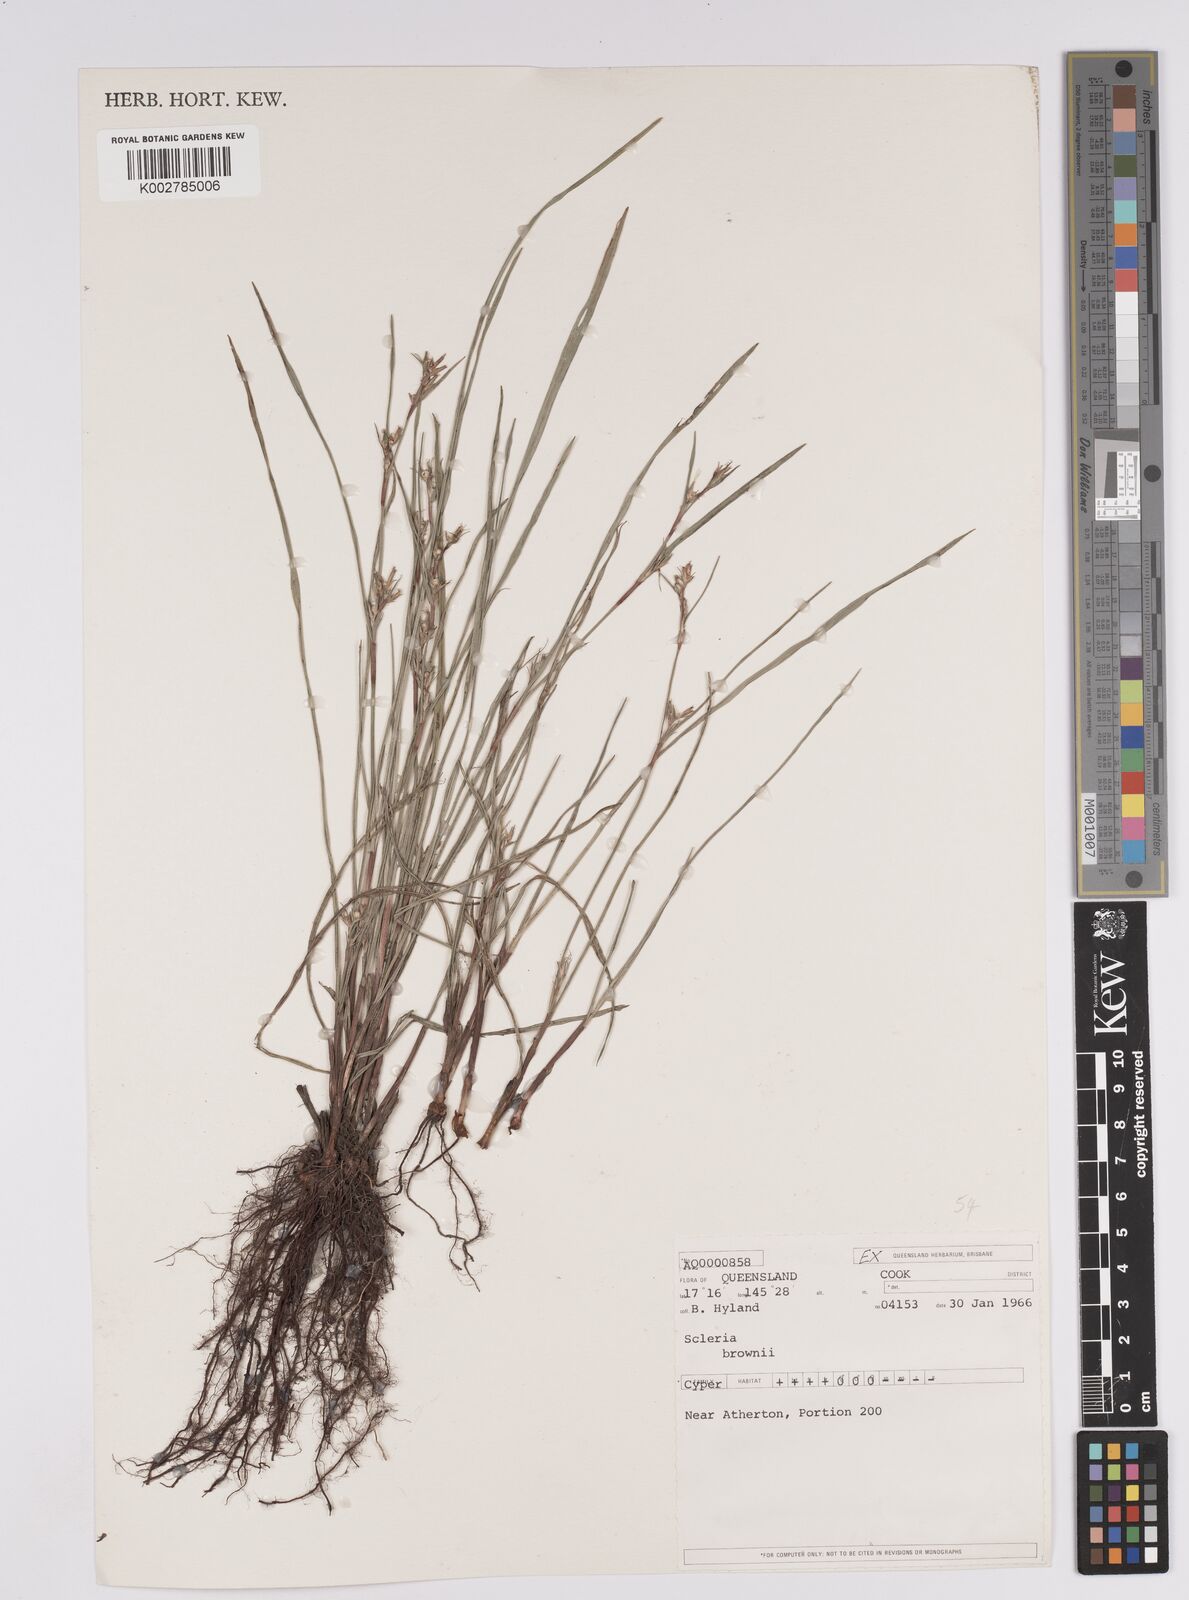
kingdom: Plantae
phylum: Tracheophyta
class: Liliopsida
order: Poales
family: Cyperaceae
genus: Scleria
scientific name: Scleria brownii
